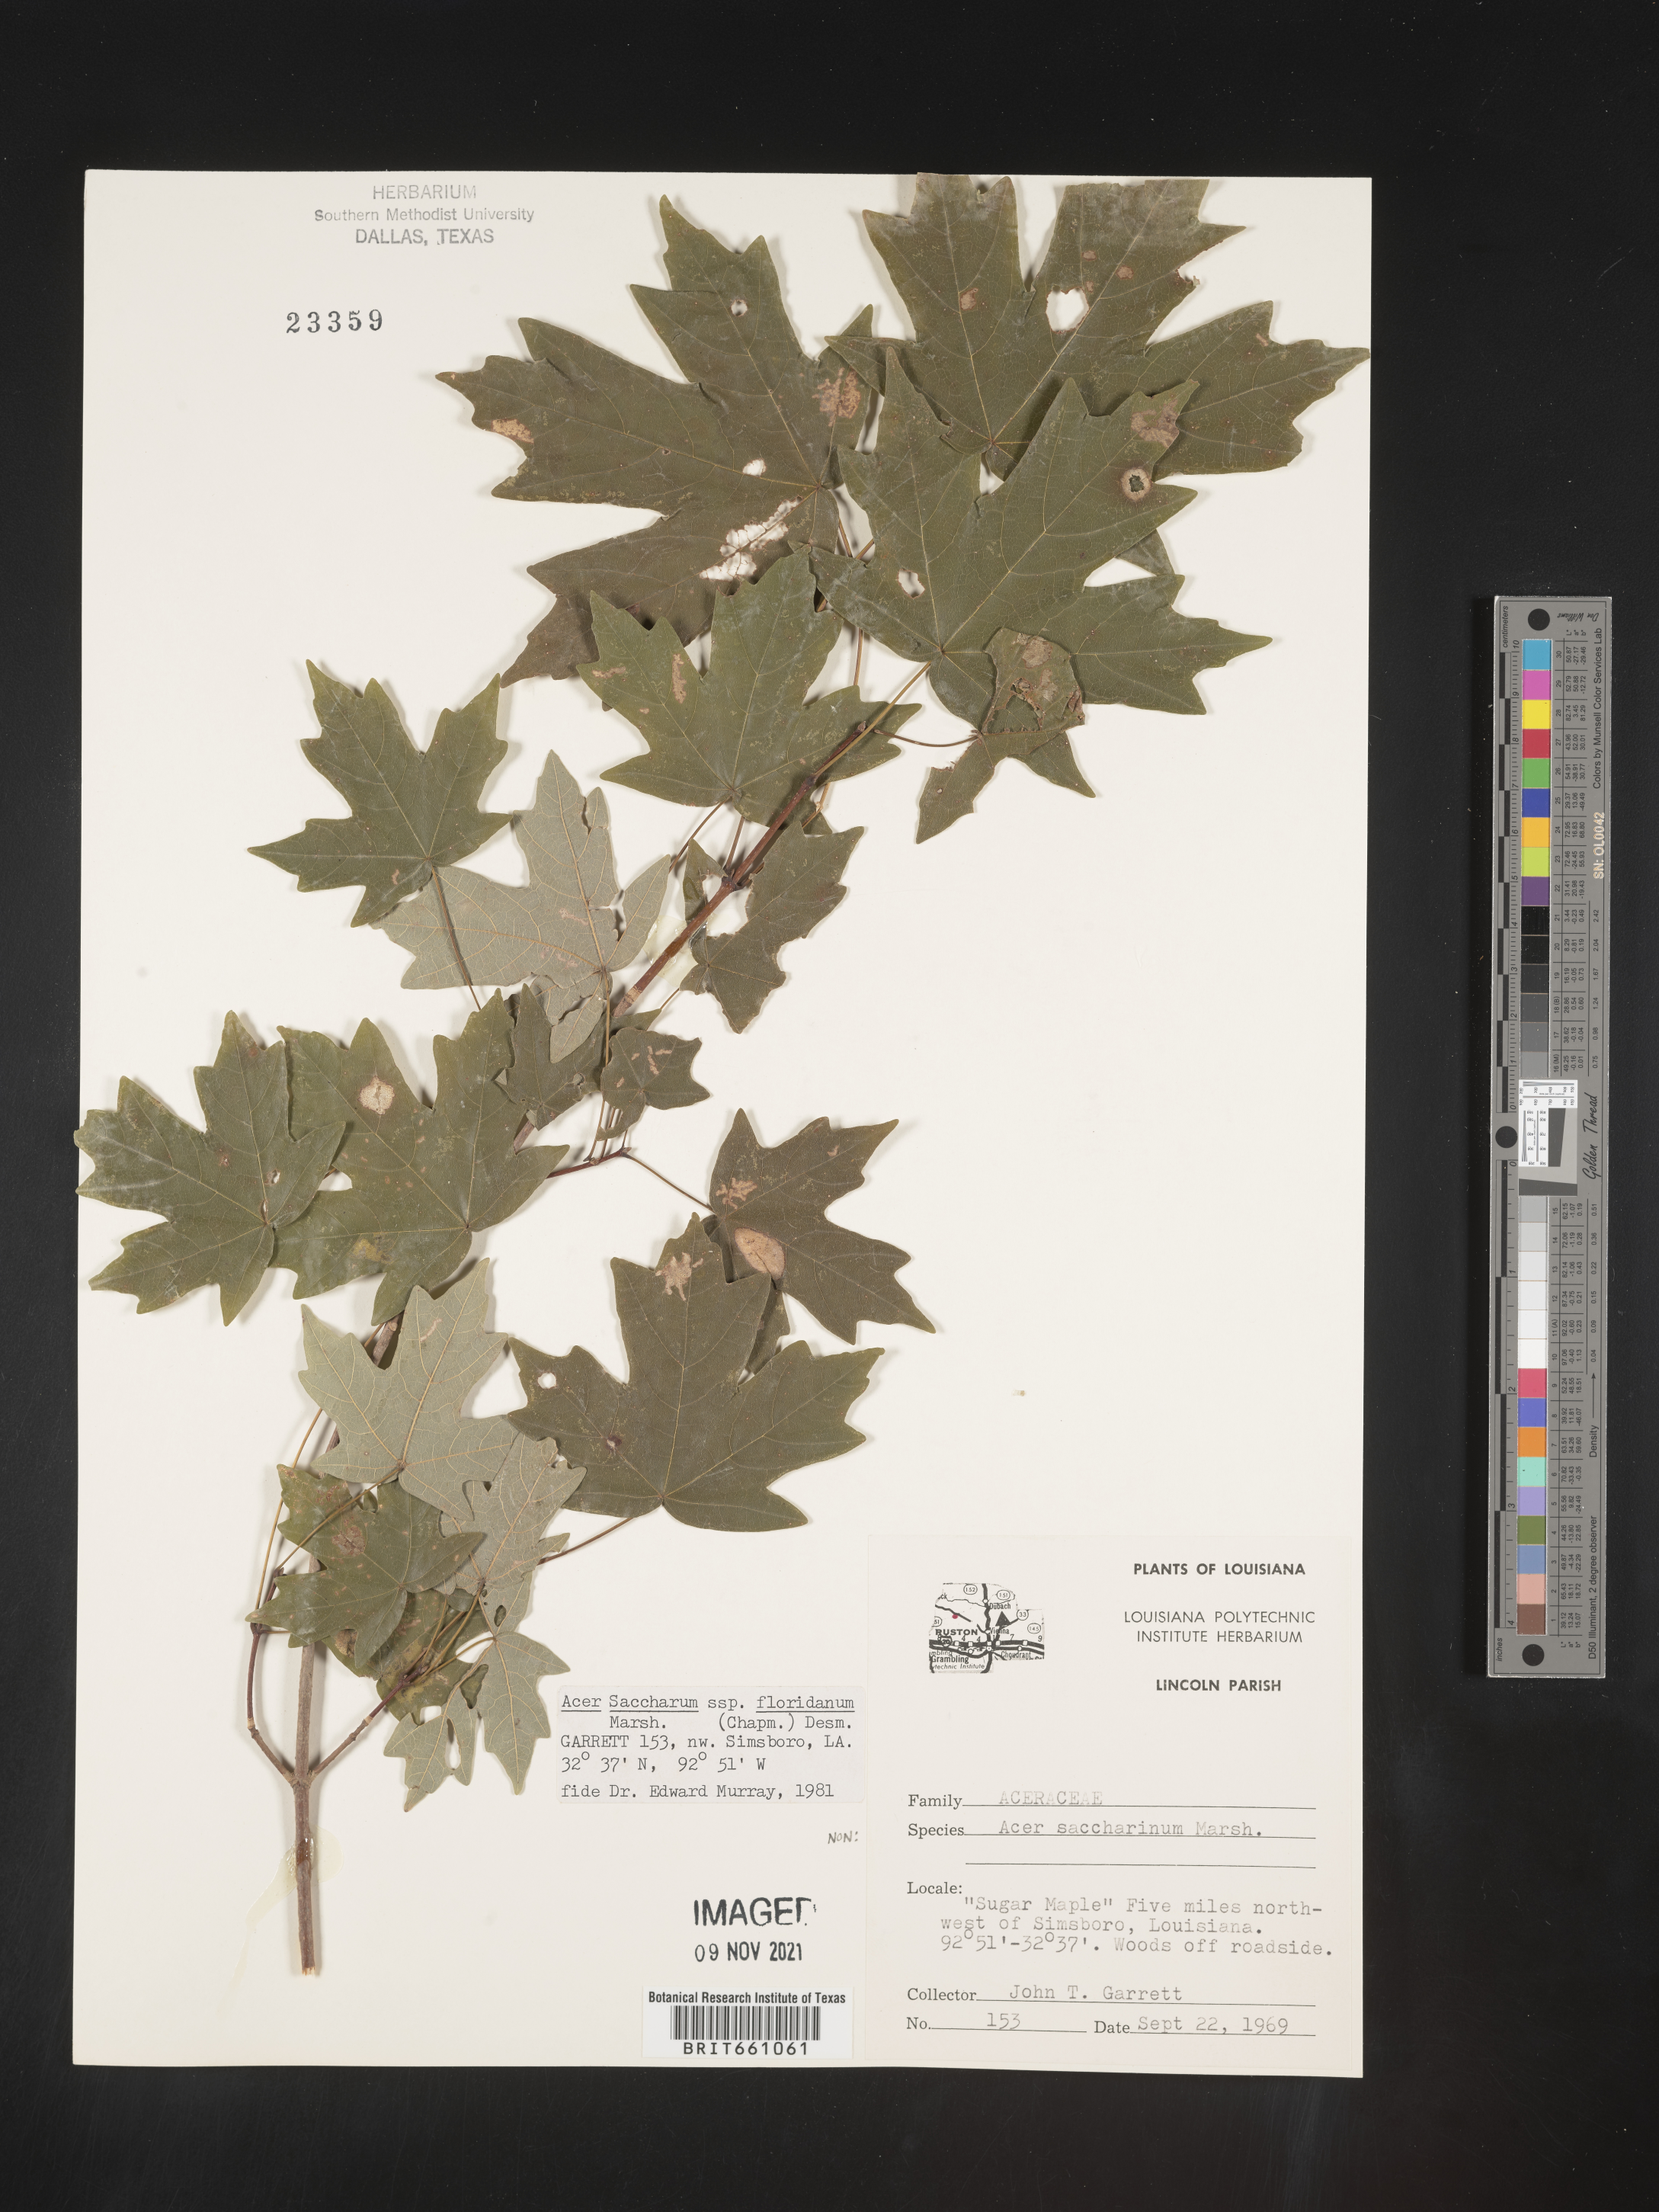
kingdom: Plantae
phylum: Tracheophyta
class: Magnoliopsida
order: Sapindales
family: Sapindaceae
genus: Acer
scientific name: Acer barbatum
